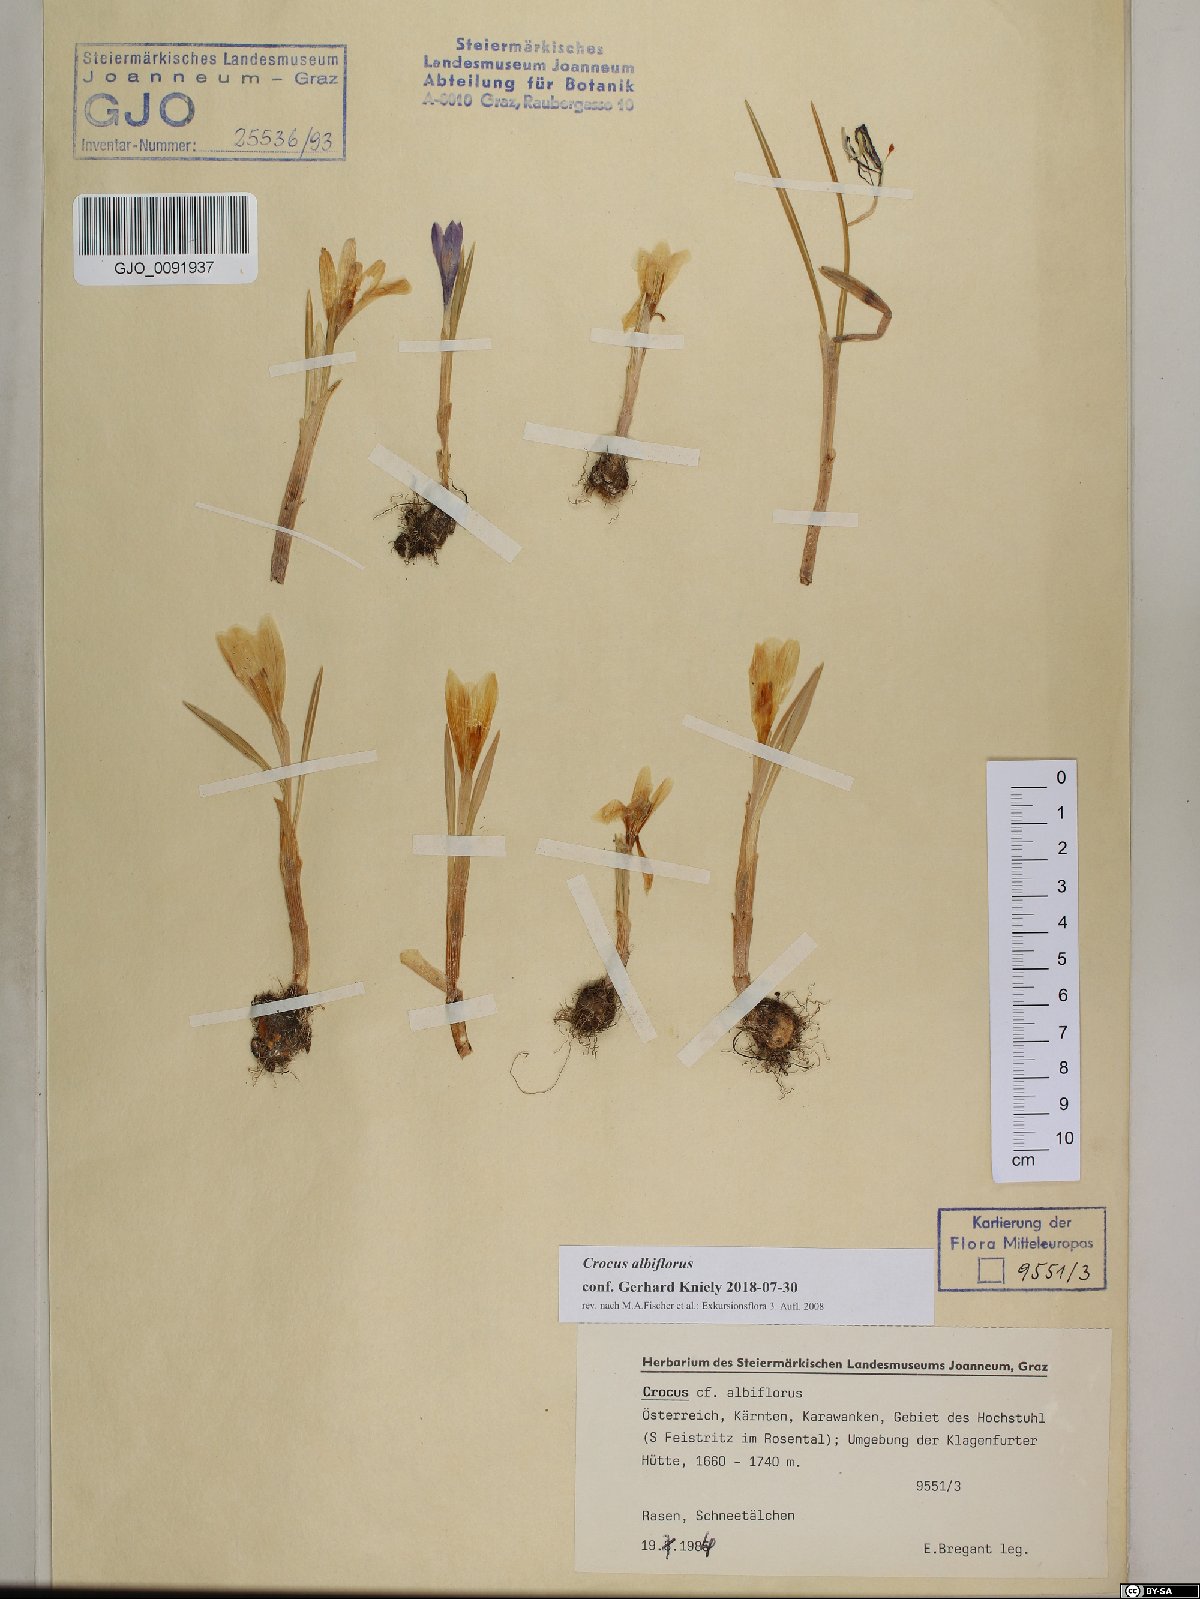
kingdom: Plantae
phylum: Tracheophyta
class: Liliopsida
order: Asparagales
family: Iridaceae
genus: Crocus
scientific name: Crocus vernus
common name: Spring crocus
